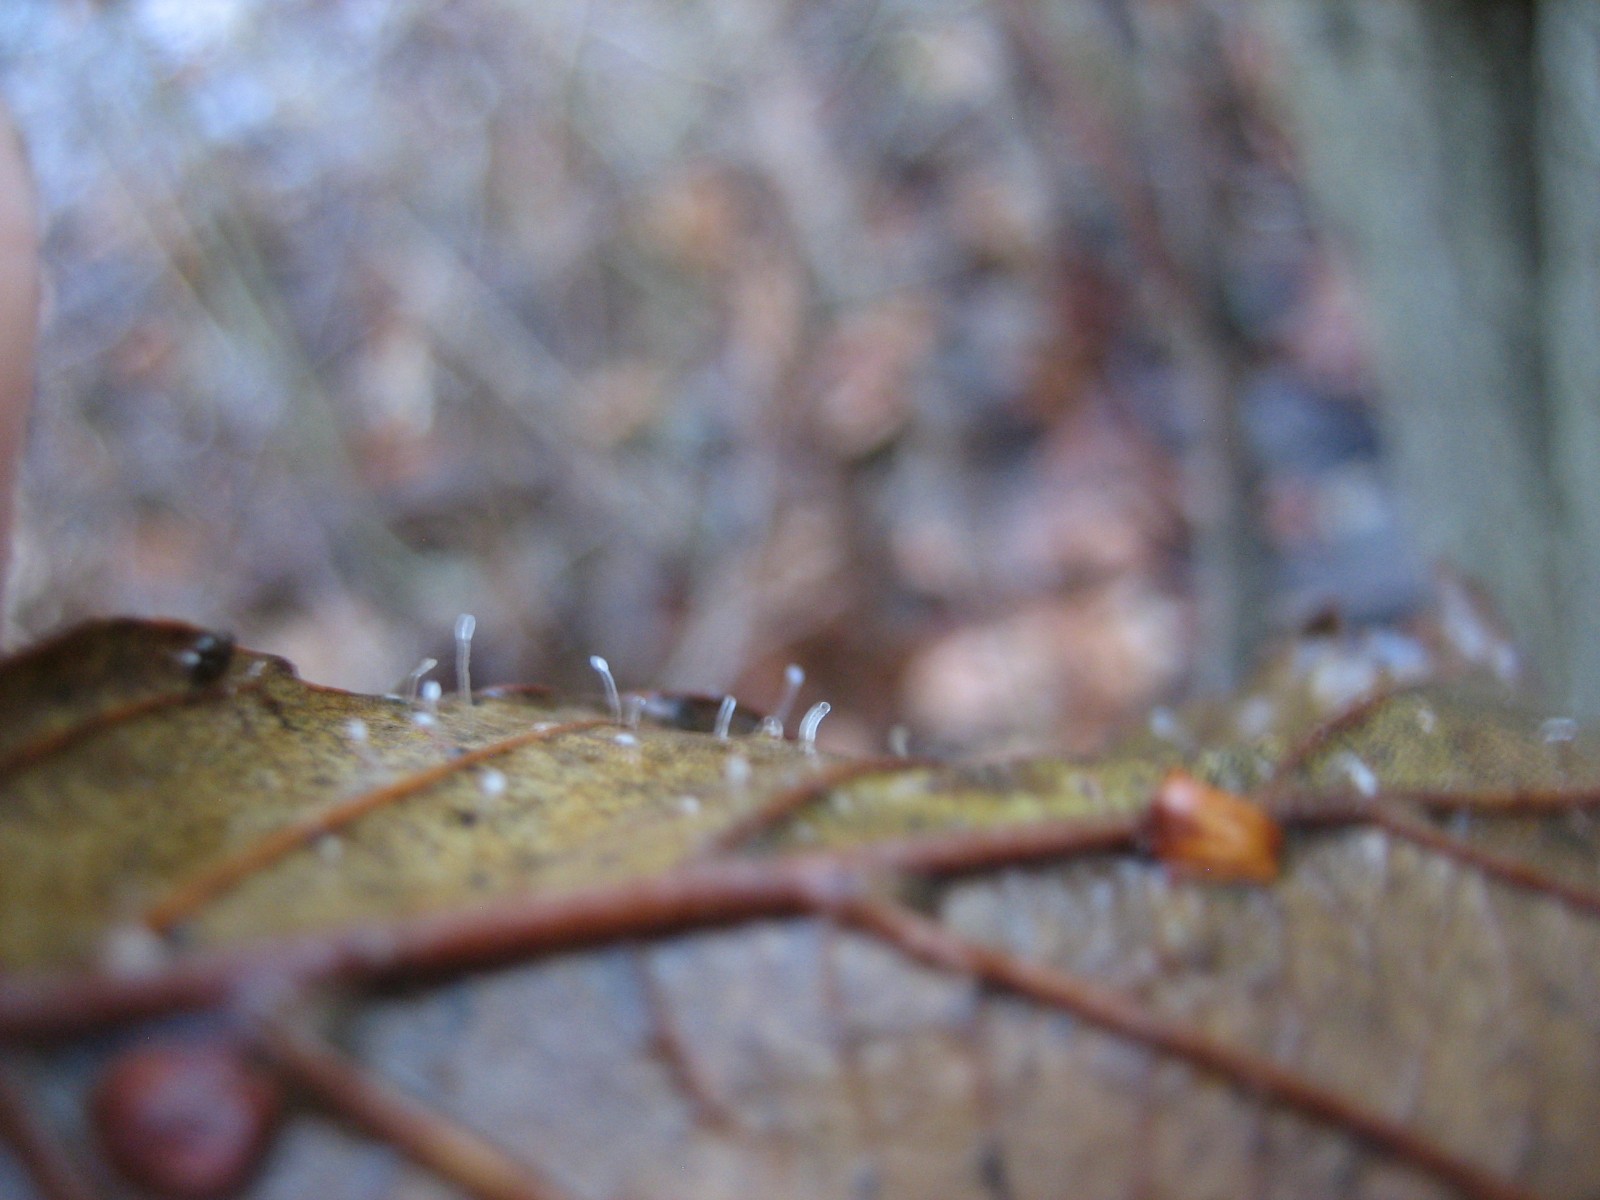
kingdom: Fungi
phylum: Basidiomycota
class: Agaricomycetes
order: Agaricales
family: Typhulaceae
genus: Typhula
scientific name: Typhula setipes
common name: liden trådkølle
